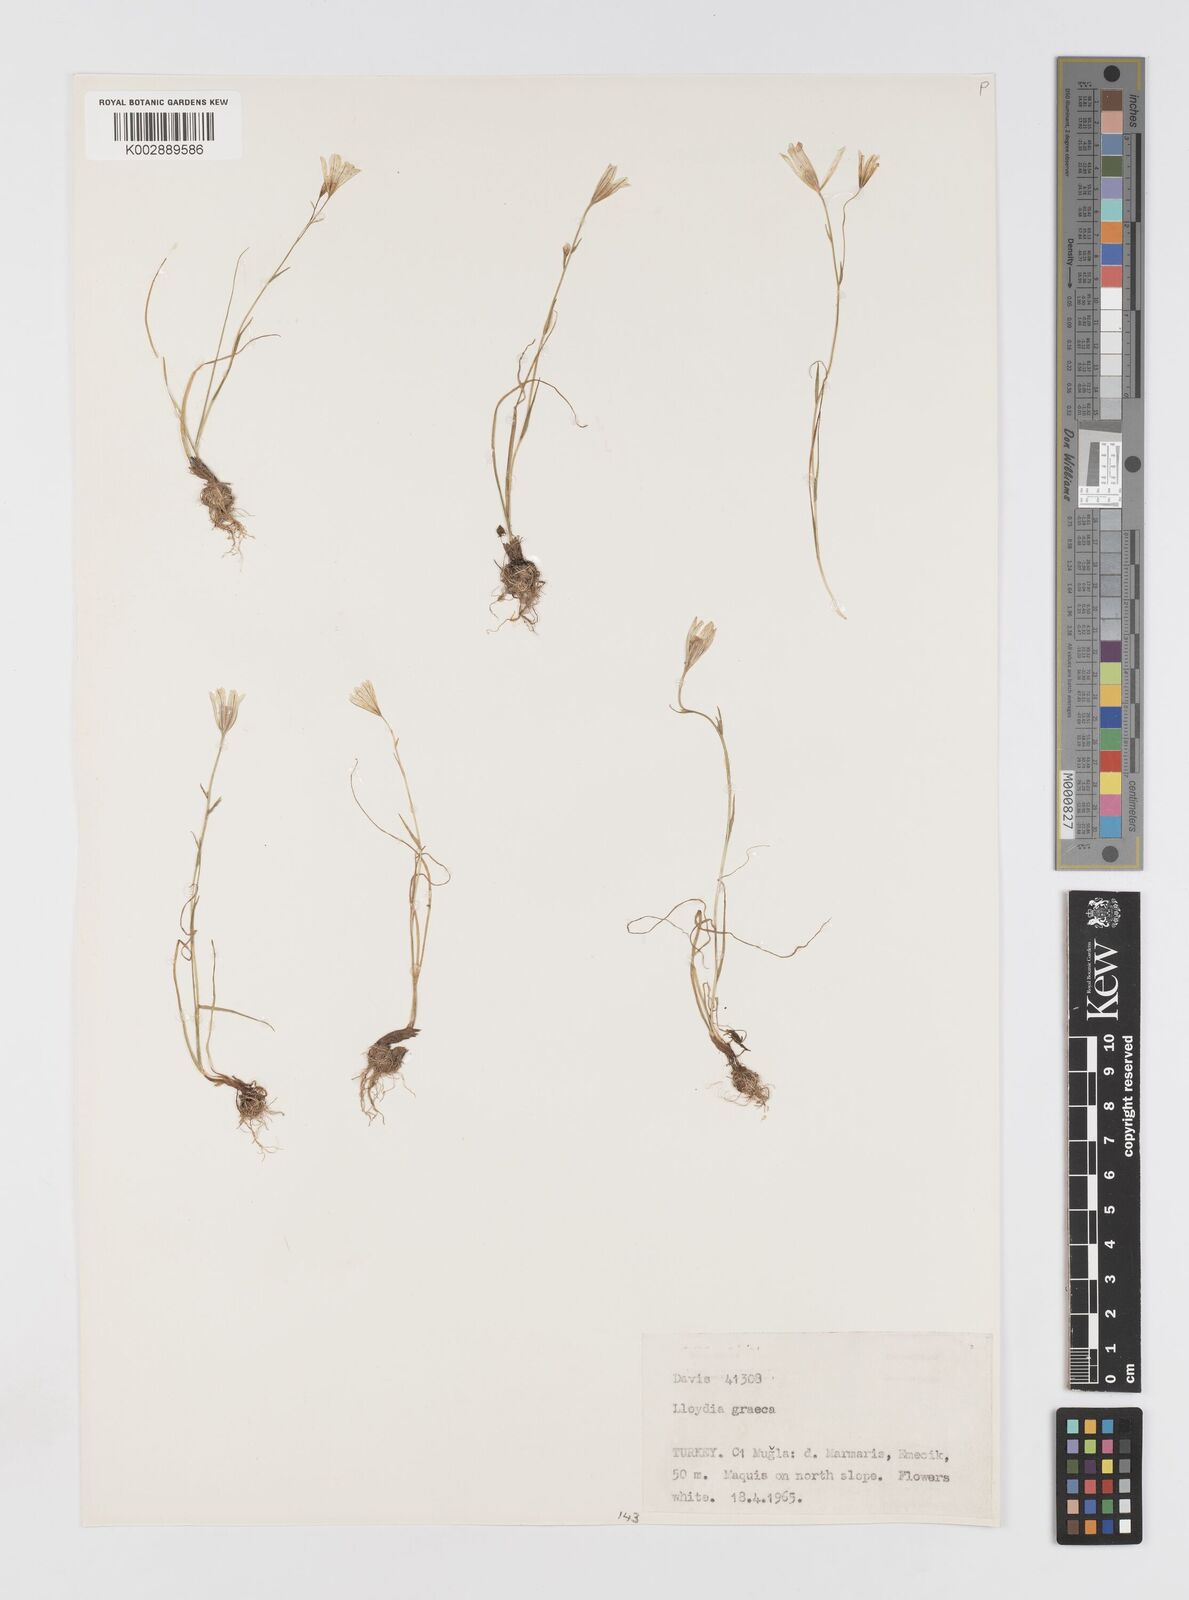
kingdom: Plantae
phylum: Tracheophyta
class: Liliopsida
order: Liliales
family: Liliaceae
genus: Gagea
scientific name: Gagea graeca
